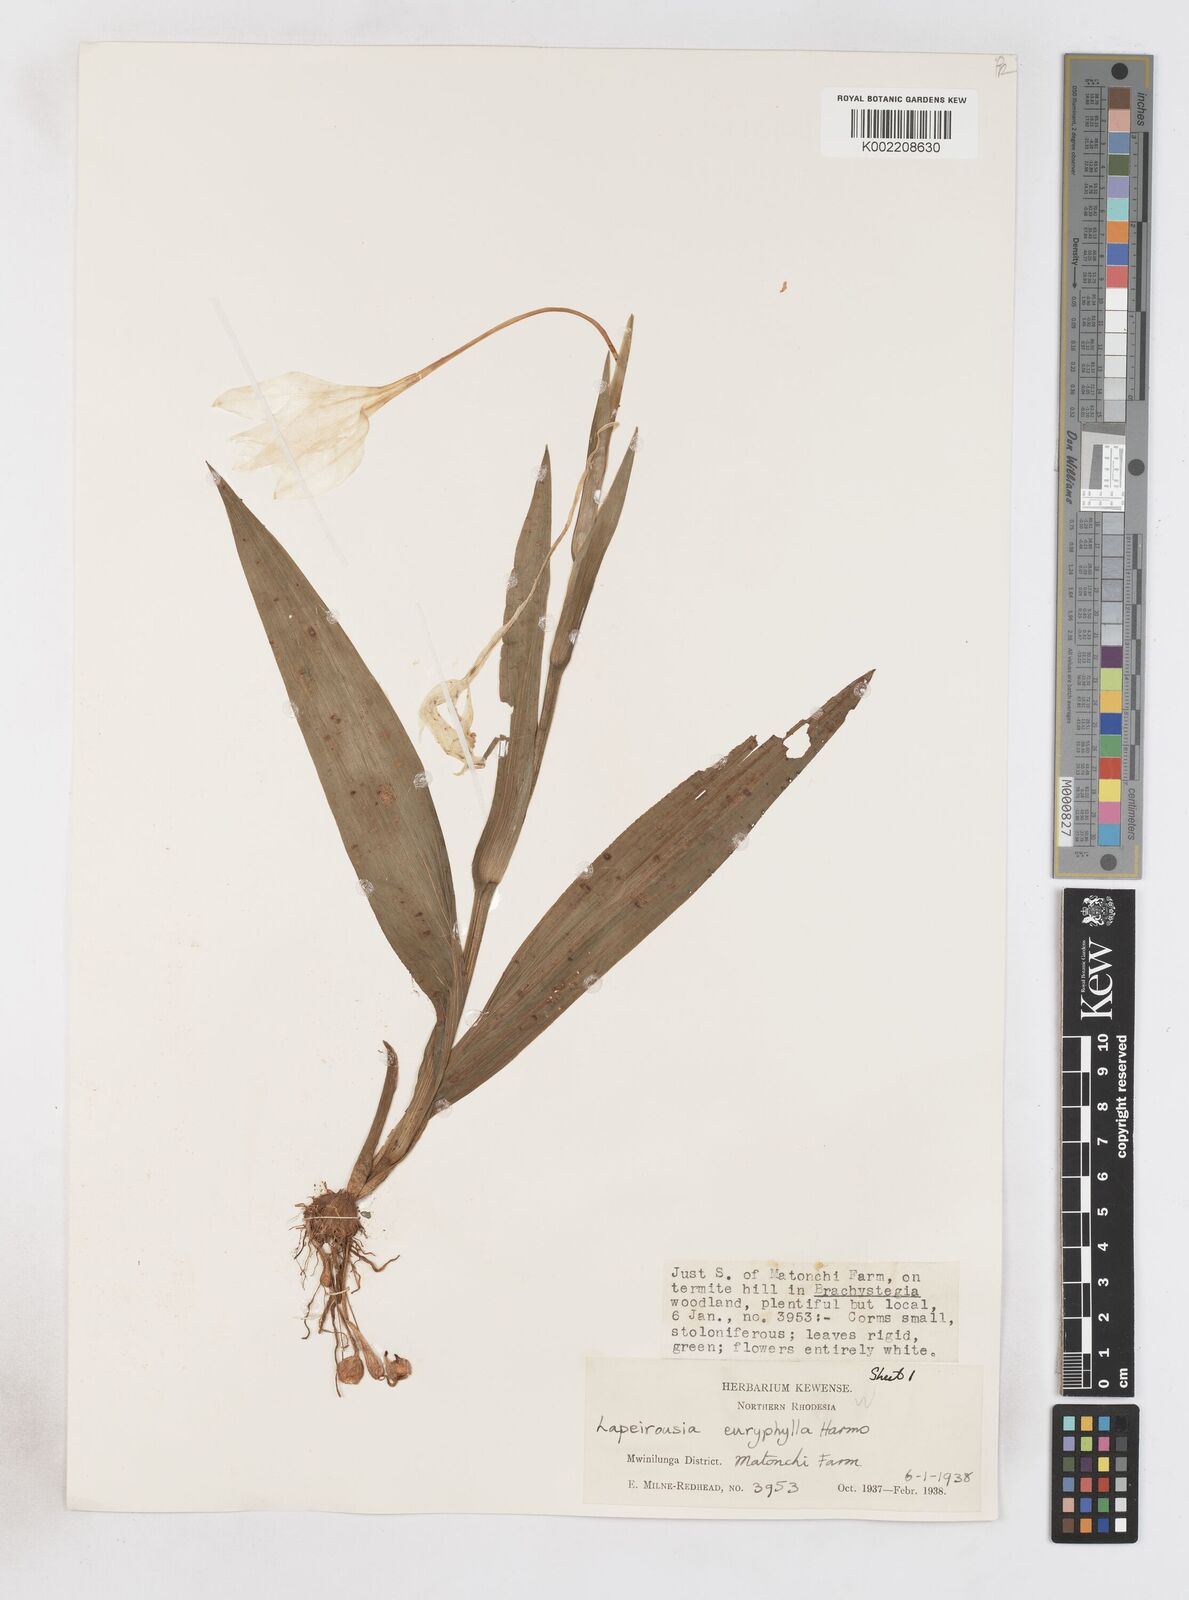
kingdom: Plantae
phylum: Tracheophyta
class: Liliopsida
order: Asparagales
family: Iridaceae
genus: Savannosiphon
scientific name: Savannosiphon euryphylla
